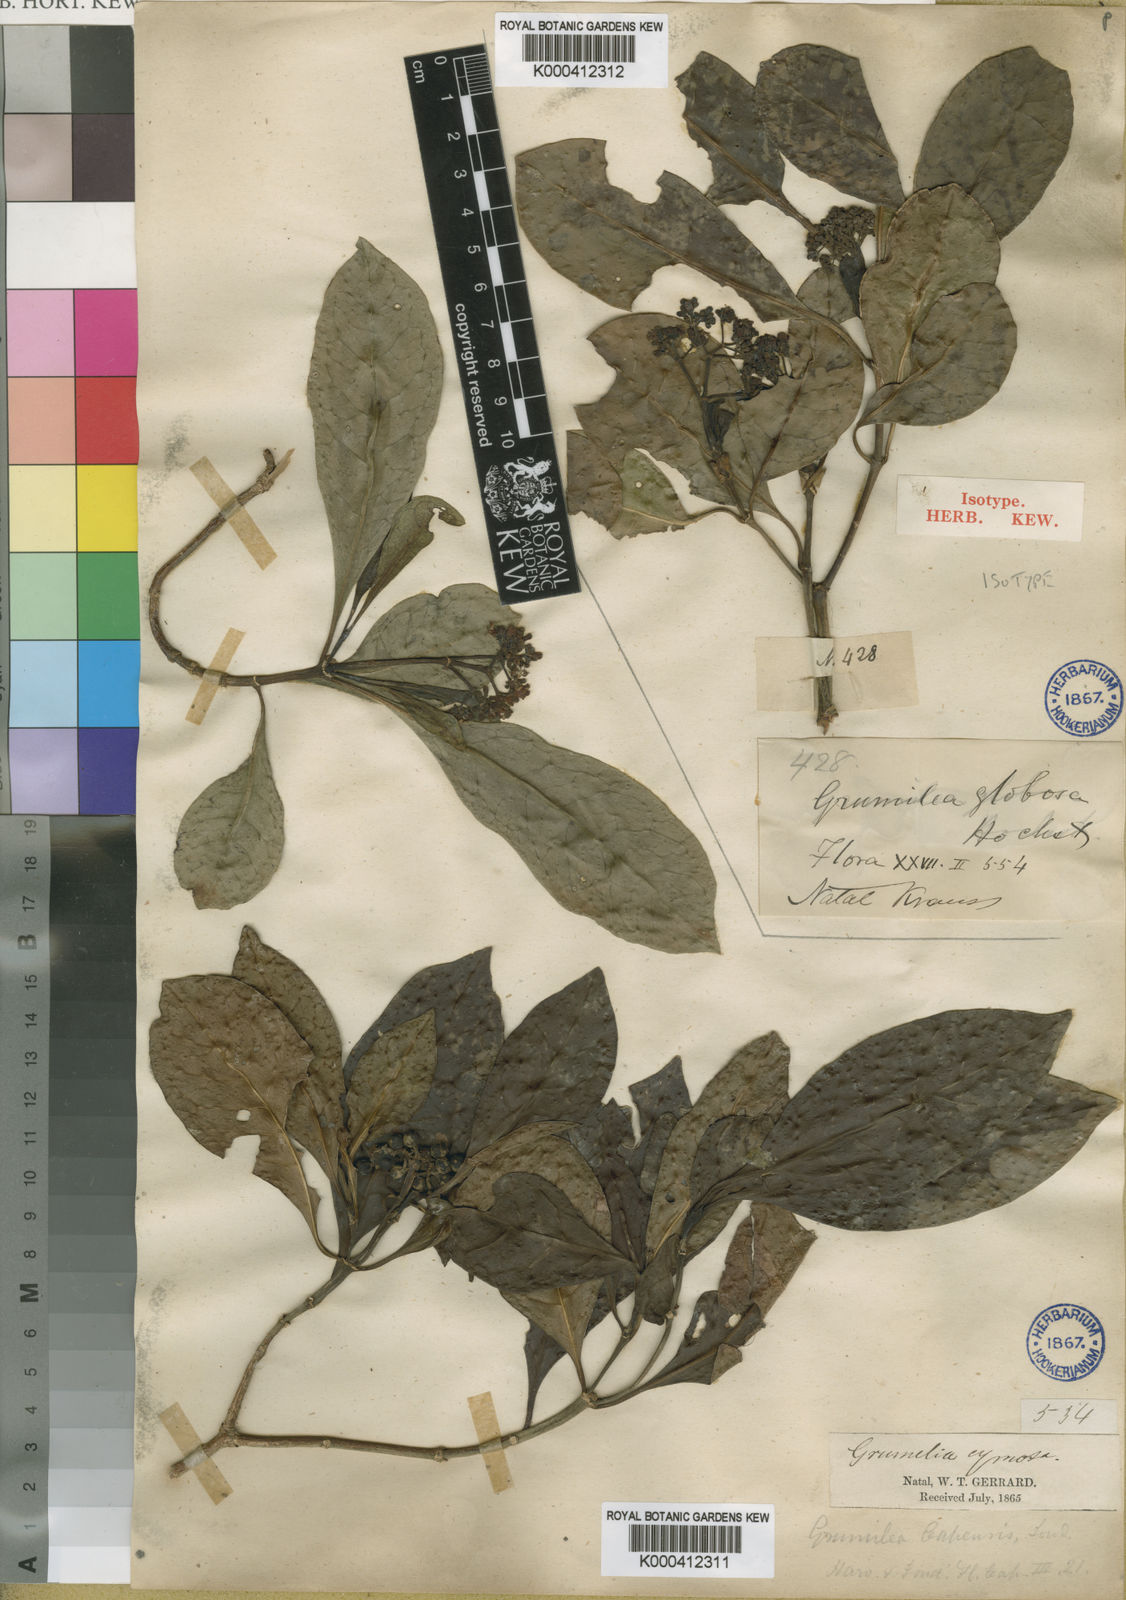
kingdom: Plantae
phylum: Tracheophyta
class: Magnoliopsida
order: Gentianales
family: Rubiaceae
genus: Psychotria
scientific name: Psychotria capensis
